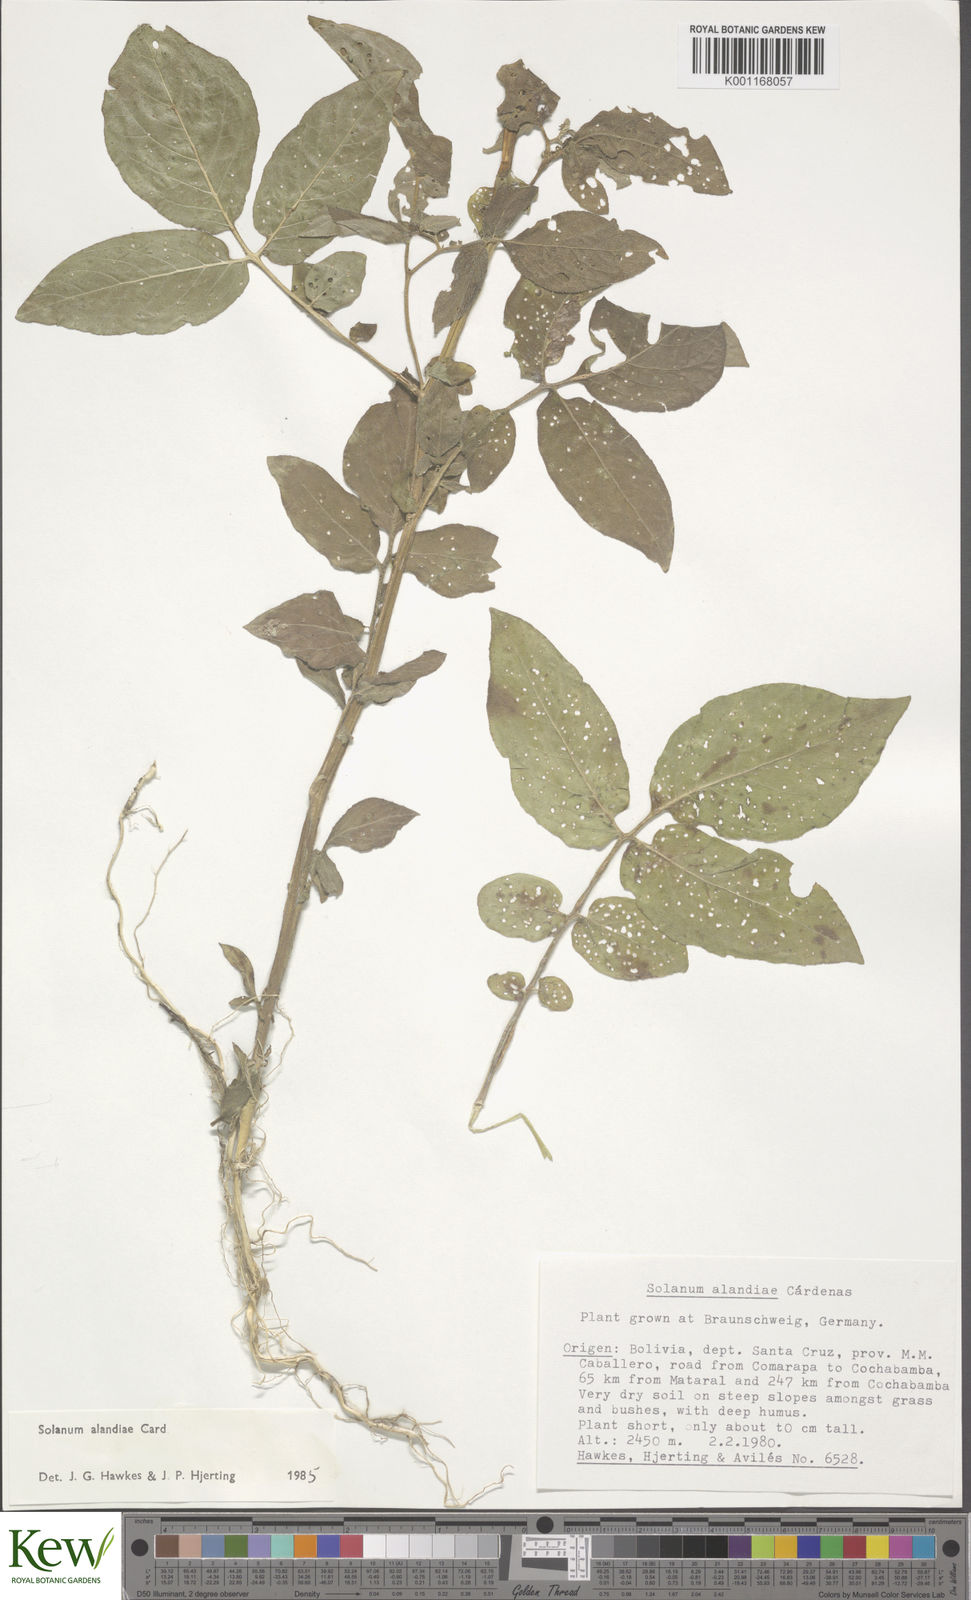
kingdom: Plantae
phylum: Tracheophyta
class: Magnoliopsida
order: Solanales
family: Solanaceae
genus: Solanum
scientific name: Solanum
